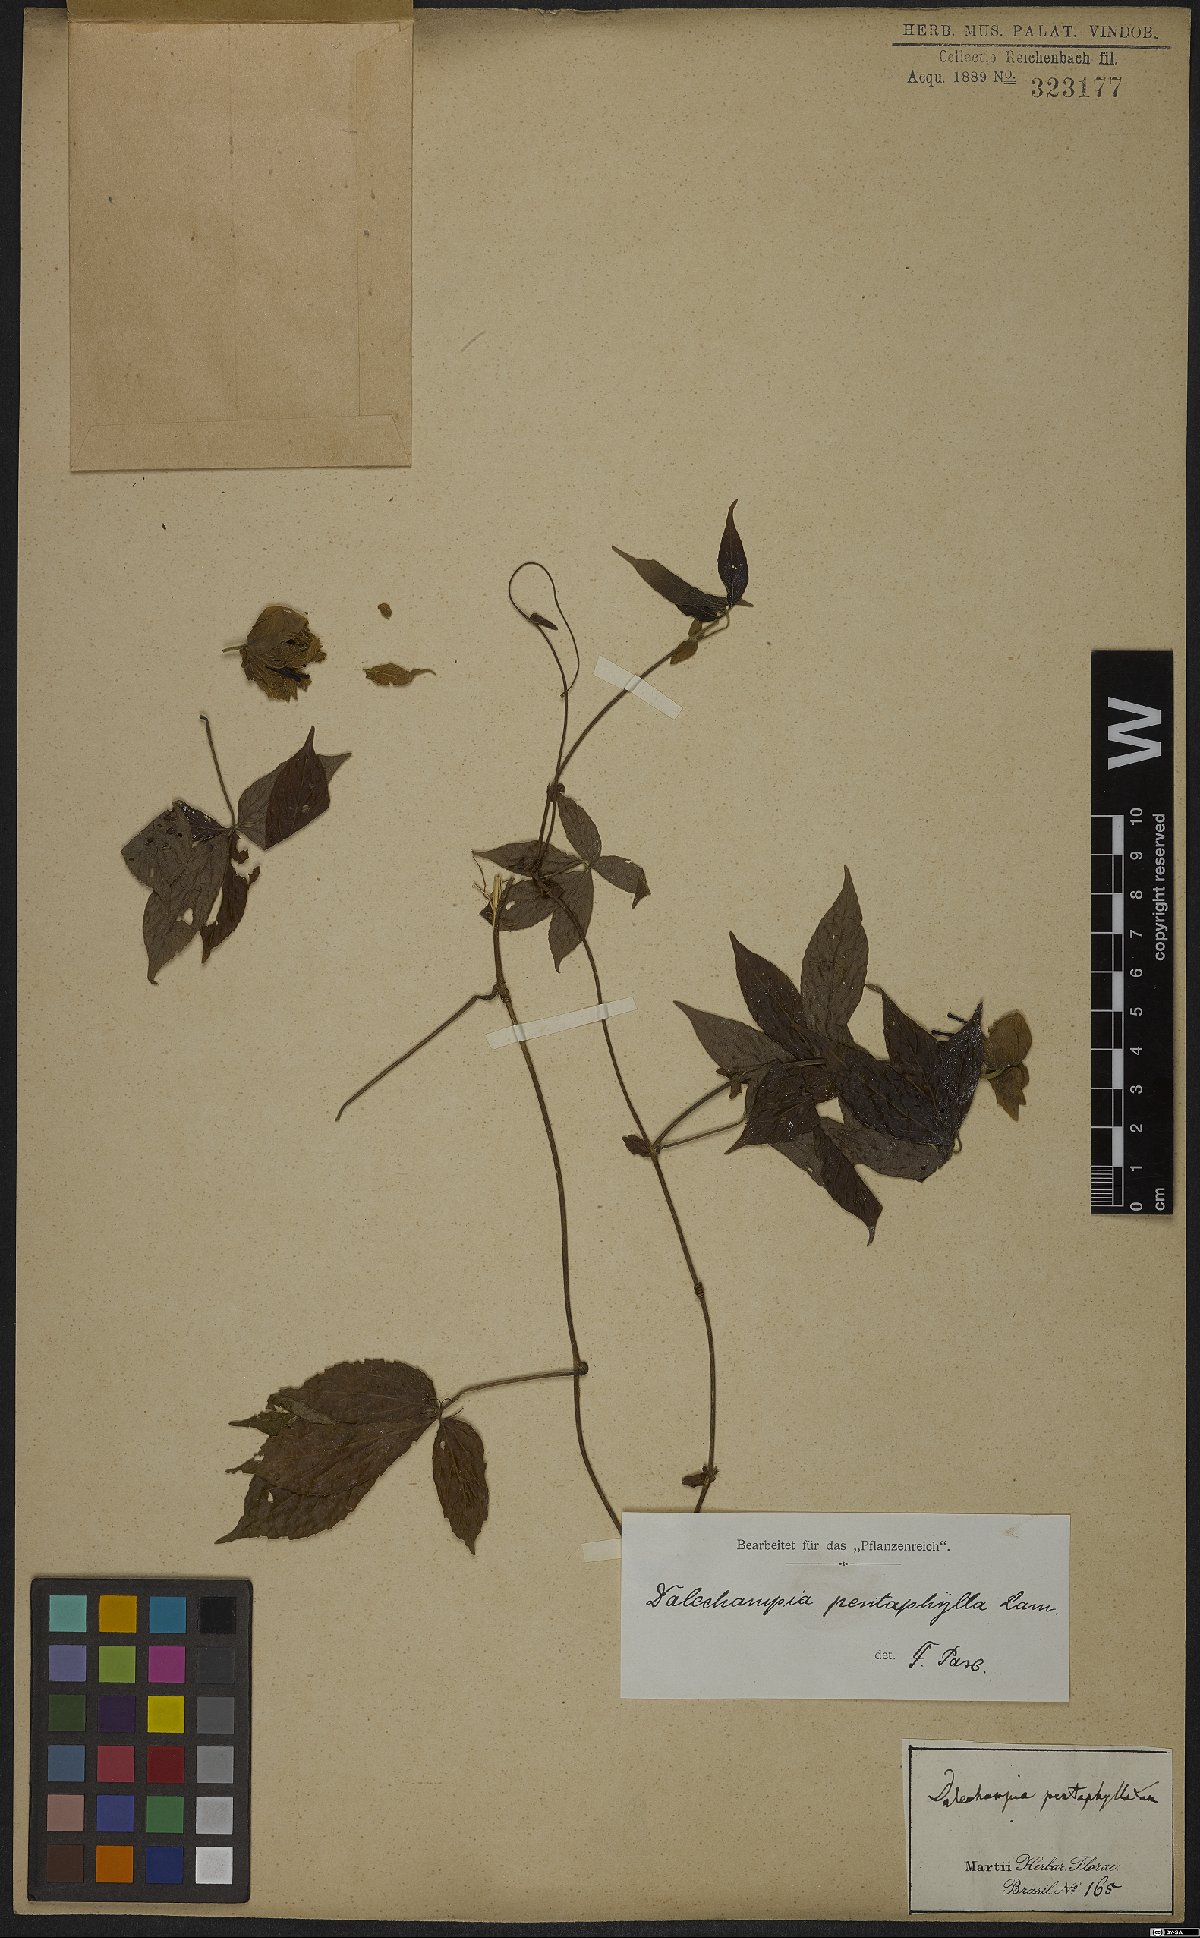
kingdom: Plantae
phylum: Tracheophyta
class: Magnoliopsida
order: Malpighiales
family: Euphorbiaceae
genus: Dalechampia
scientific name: Dalechampia pentaphylla
